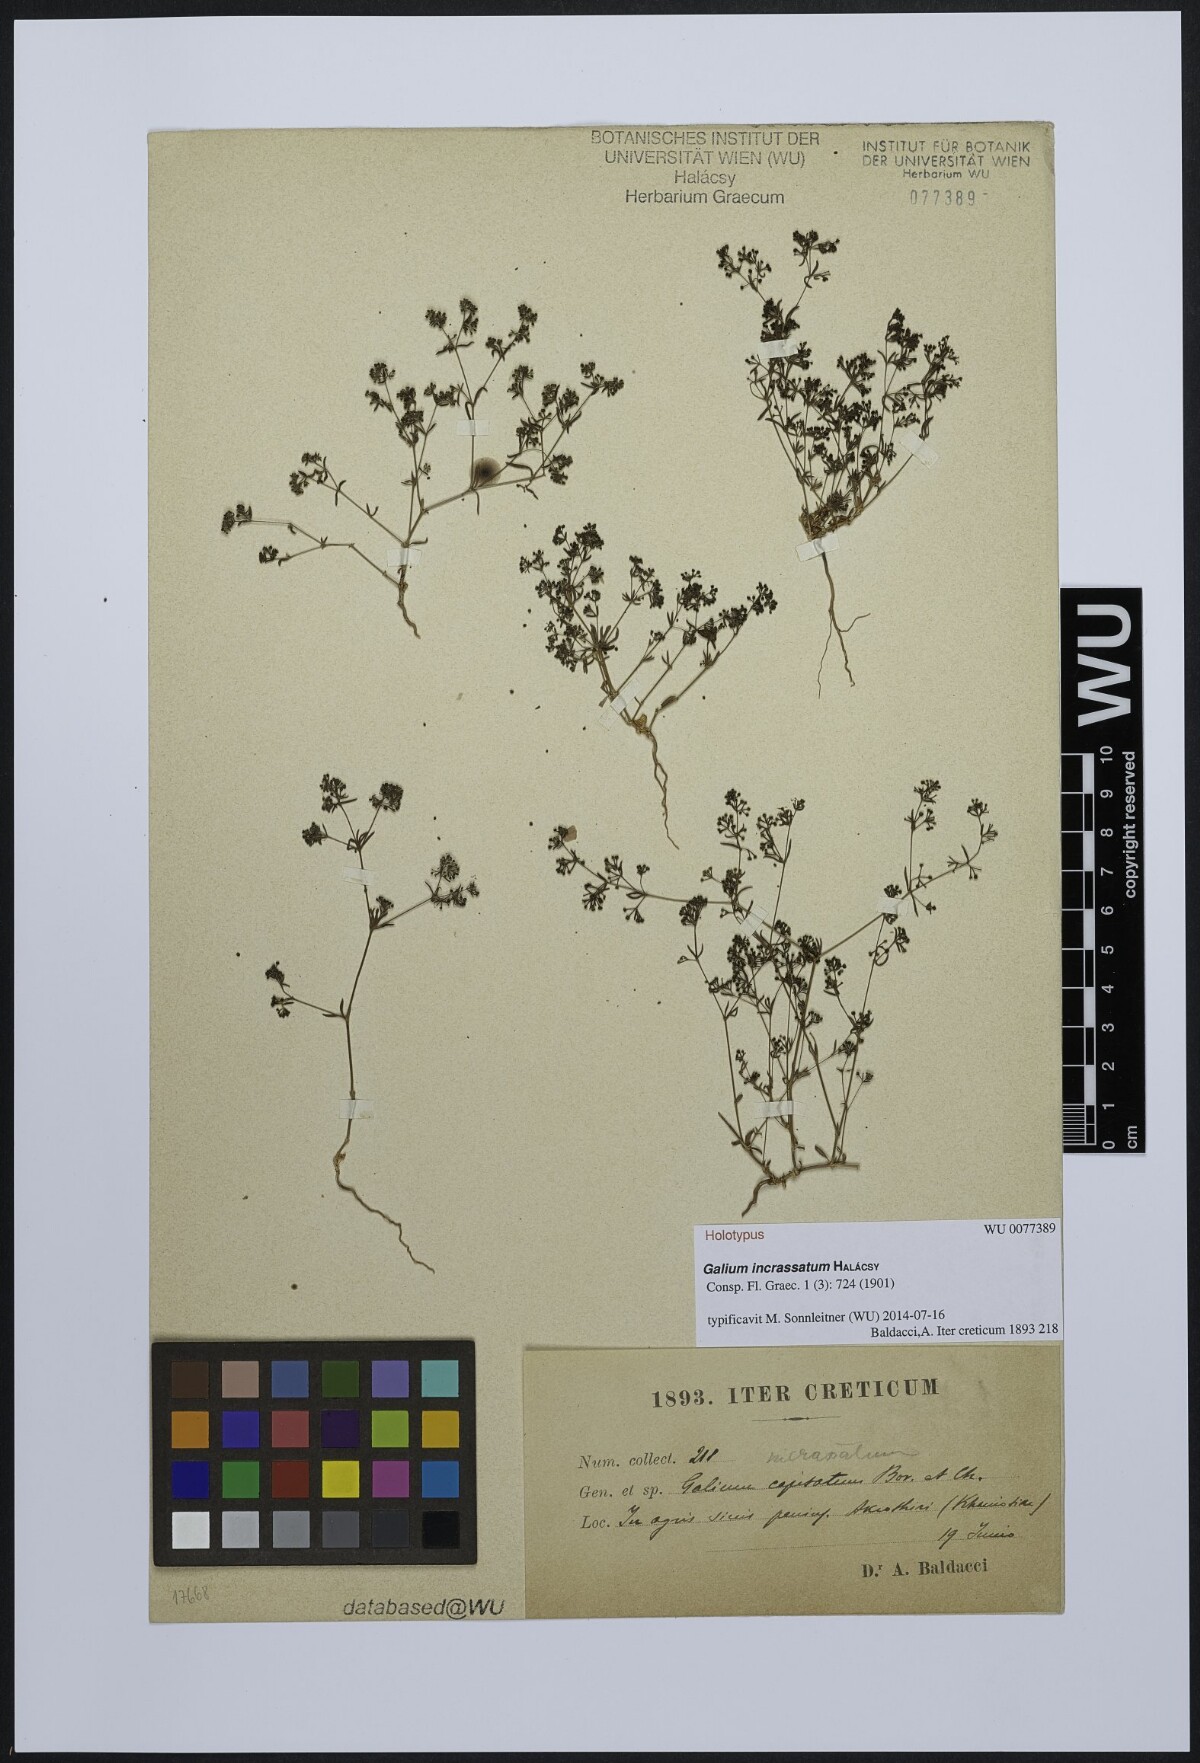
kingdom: Plantae
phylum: Tracheophyta
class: Magnoliopsida
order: Gentianales
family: Rubiaceae
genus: Galium
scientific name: Galium incrassatum
